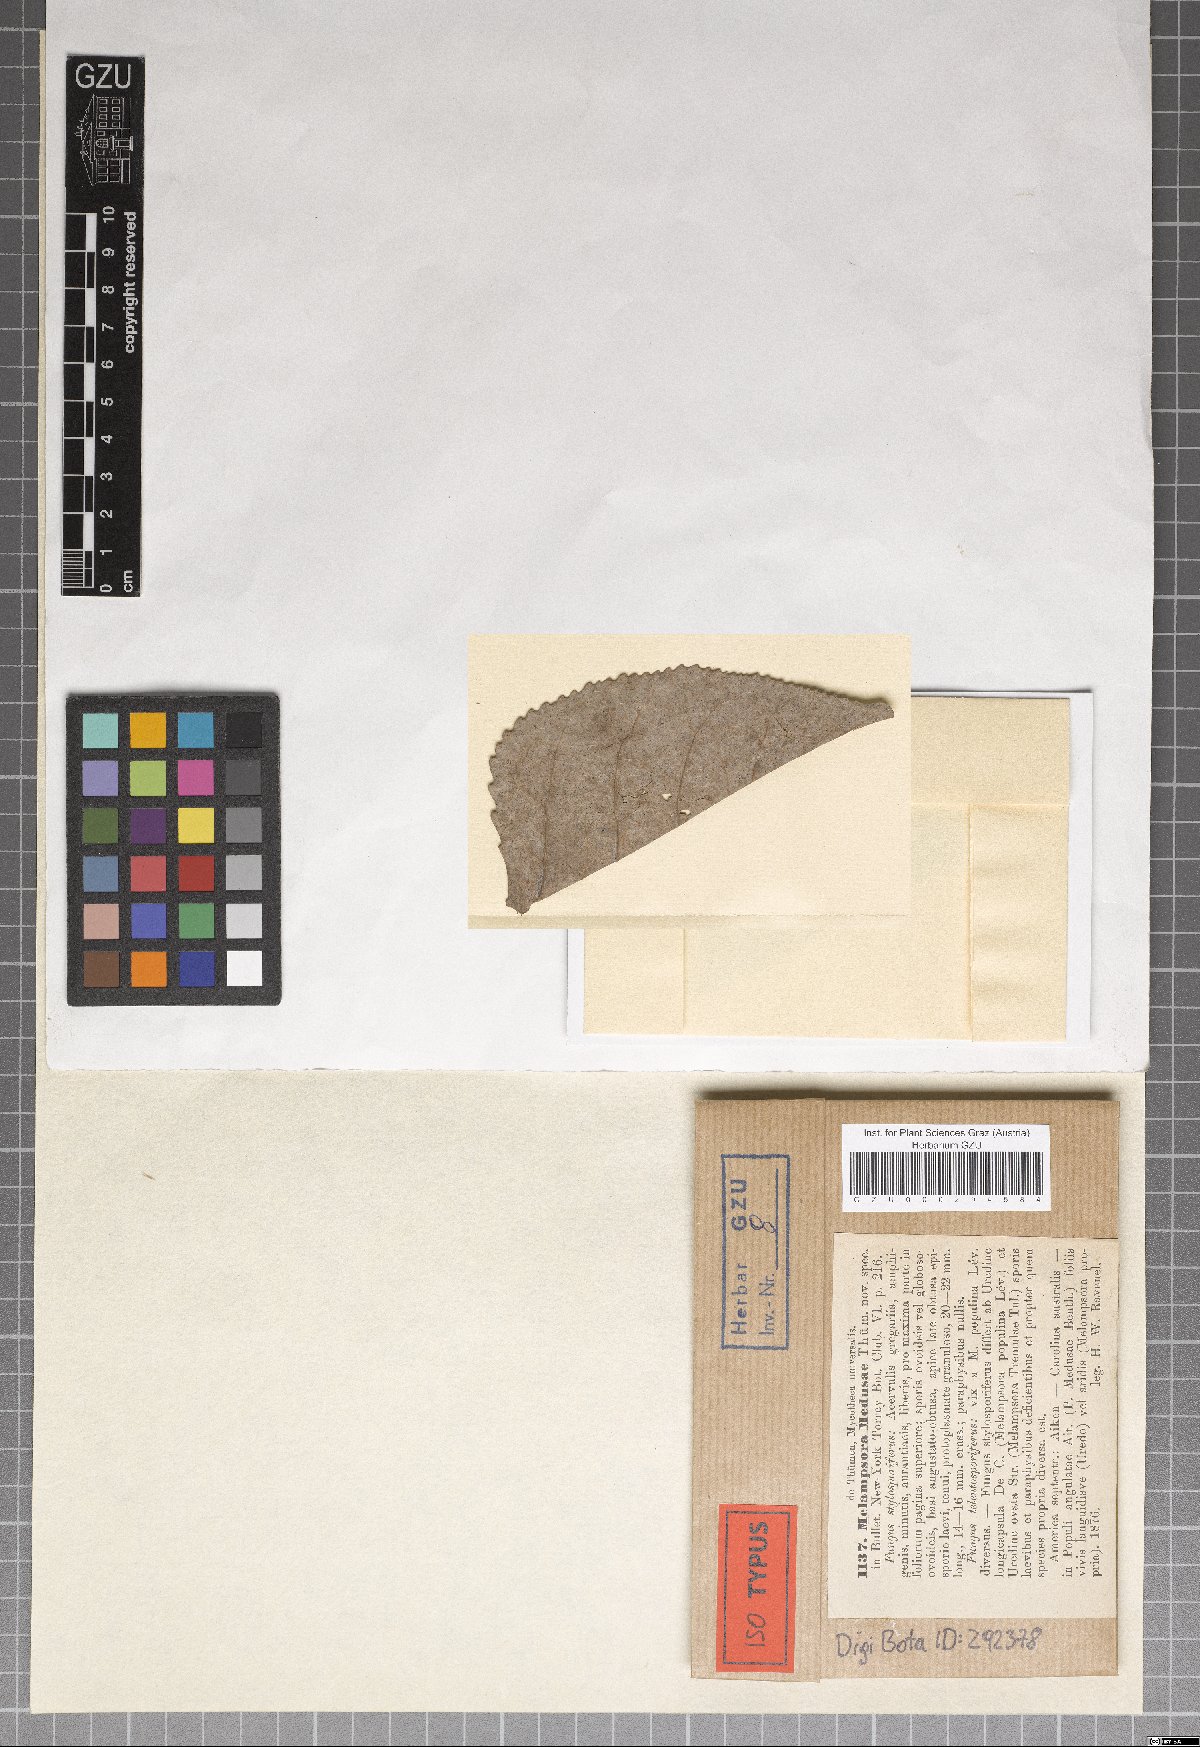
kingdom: Fungi
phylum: Basidiomycota
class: Pucciniomycetes
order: Pucciniales
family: Melampsoraceae
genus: Melampsora
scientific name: Melampsora medusae
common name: Poplar rust
